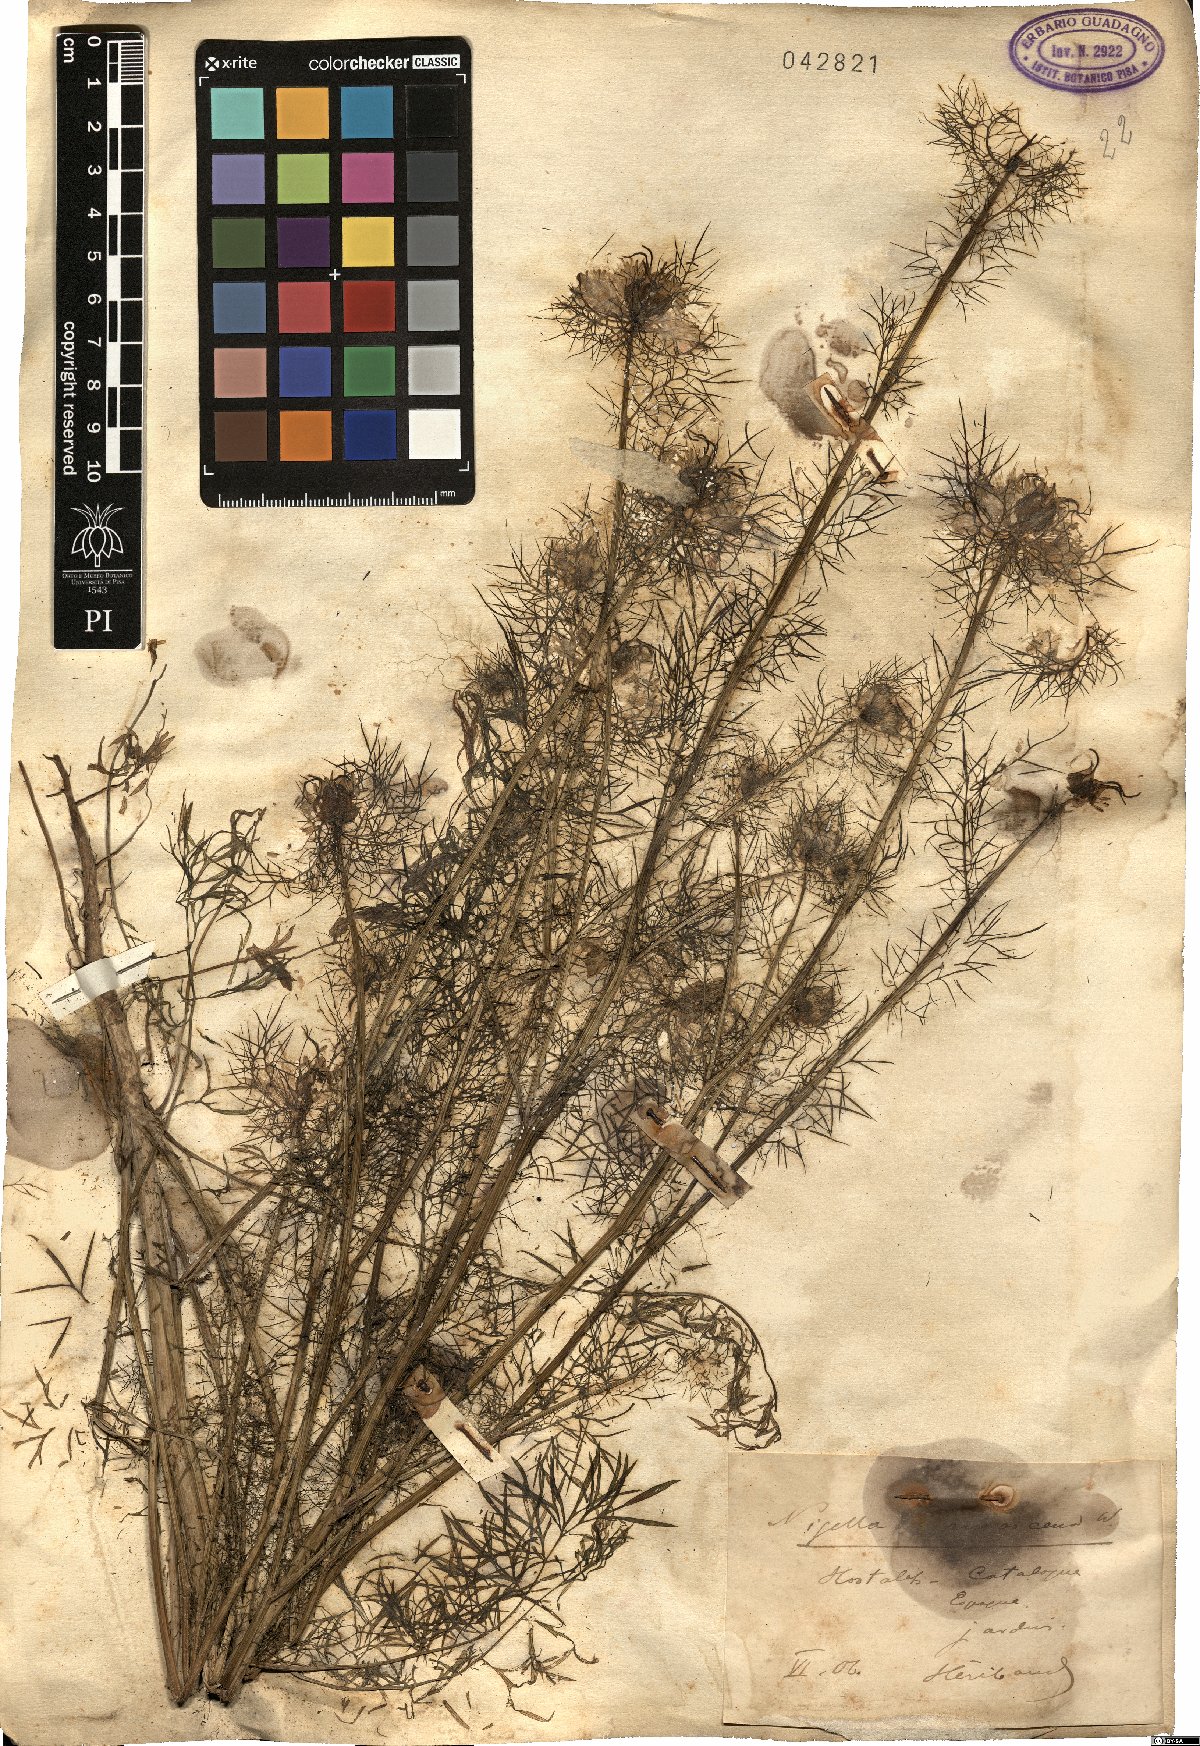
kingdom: Plantae
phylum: Tracheophyta
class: Magnoliopsida
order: Ranunculales
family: Ranunculaceae
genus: Nigella
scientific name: Nigella damascena
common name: Love-in-a-mist
